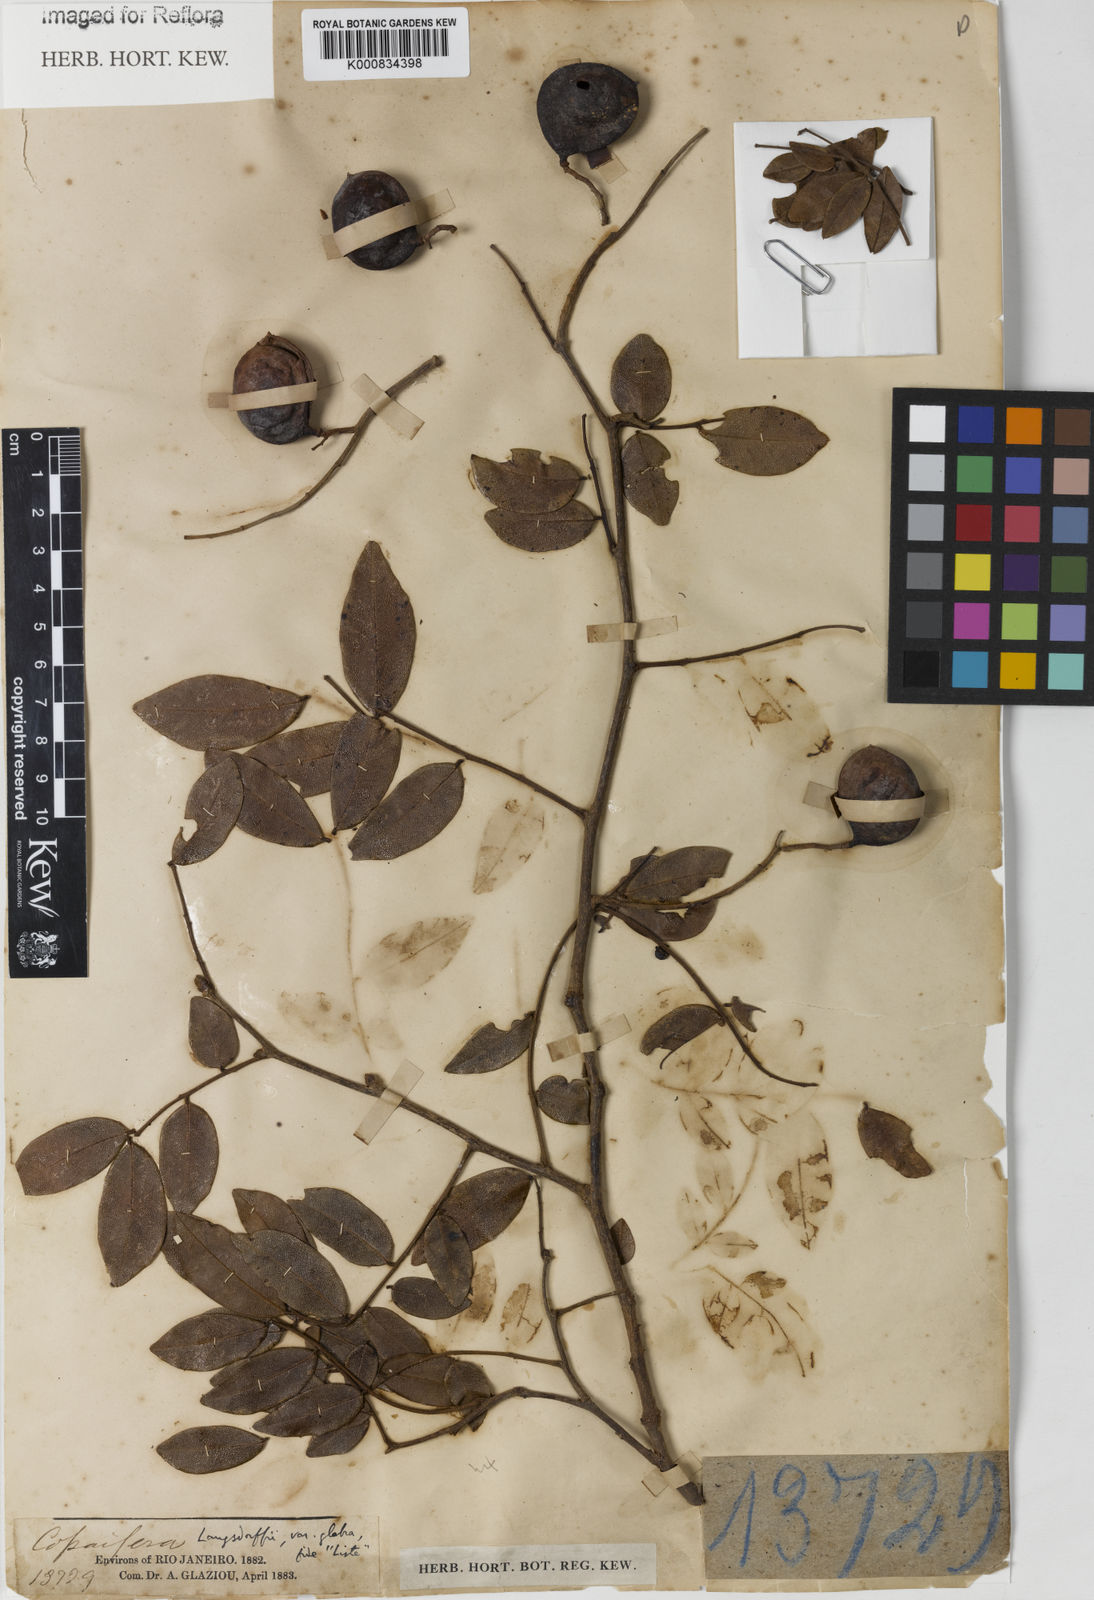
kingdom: Plantae
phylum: Tracheophyta
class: Magnoliopsida
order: Fabales
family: Fabaceae
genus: Copaifera
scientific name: Copaifera langsdorffii
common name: Brazilian diesel tree
